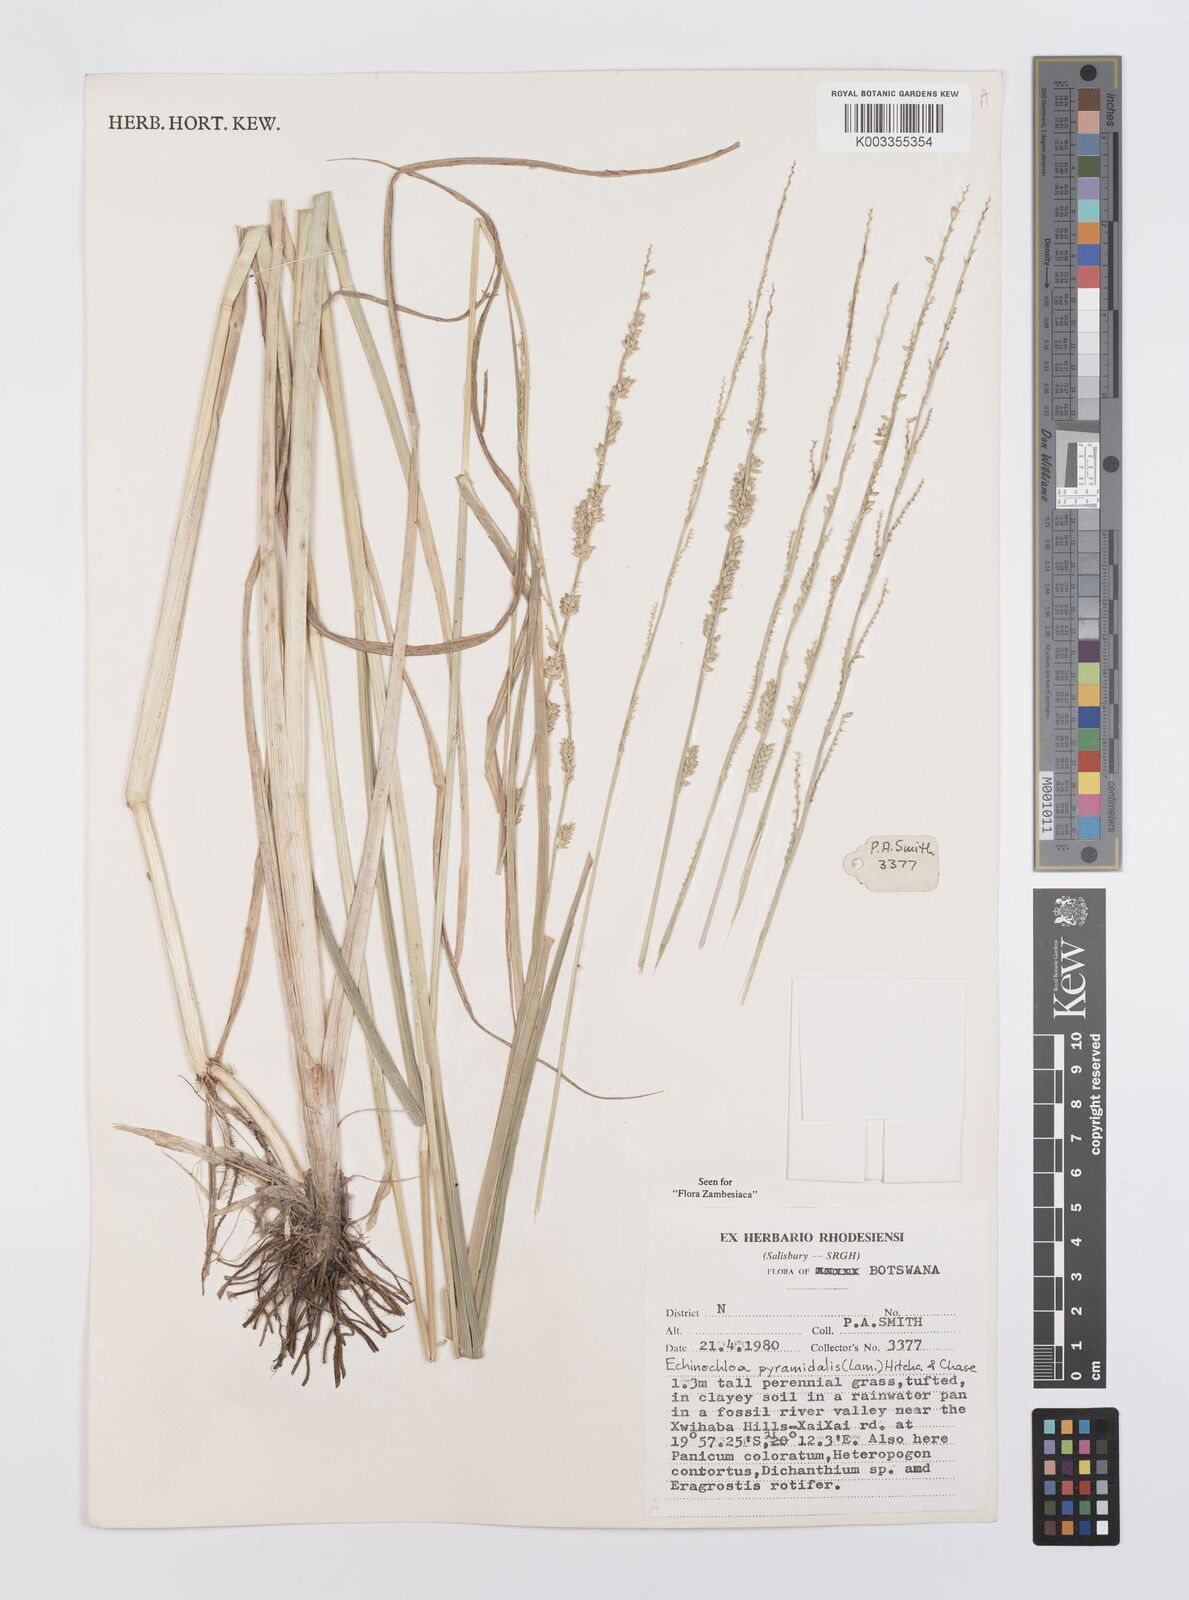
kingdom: Plantae
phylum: Tracheophyta
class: Liliopsida
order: Poales
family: Poaceae
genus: Echinochloa
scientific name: Echinochloa pyramidalis
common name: Antelope grass
